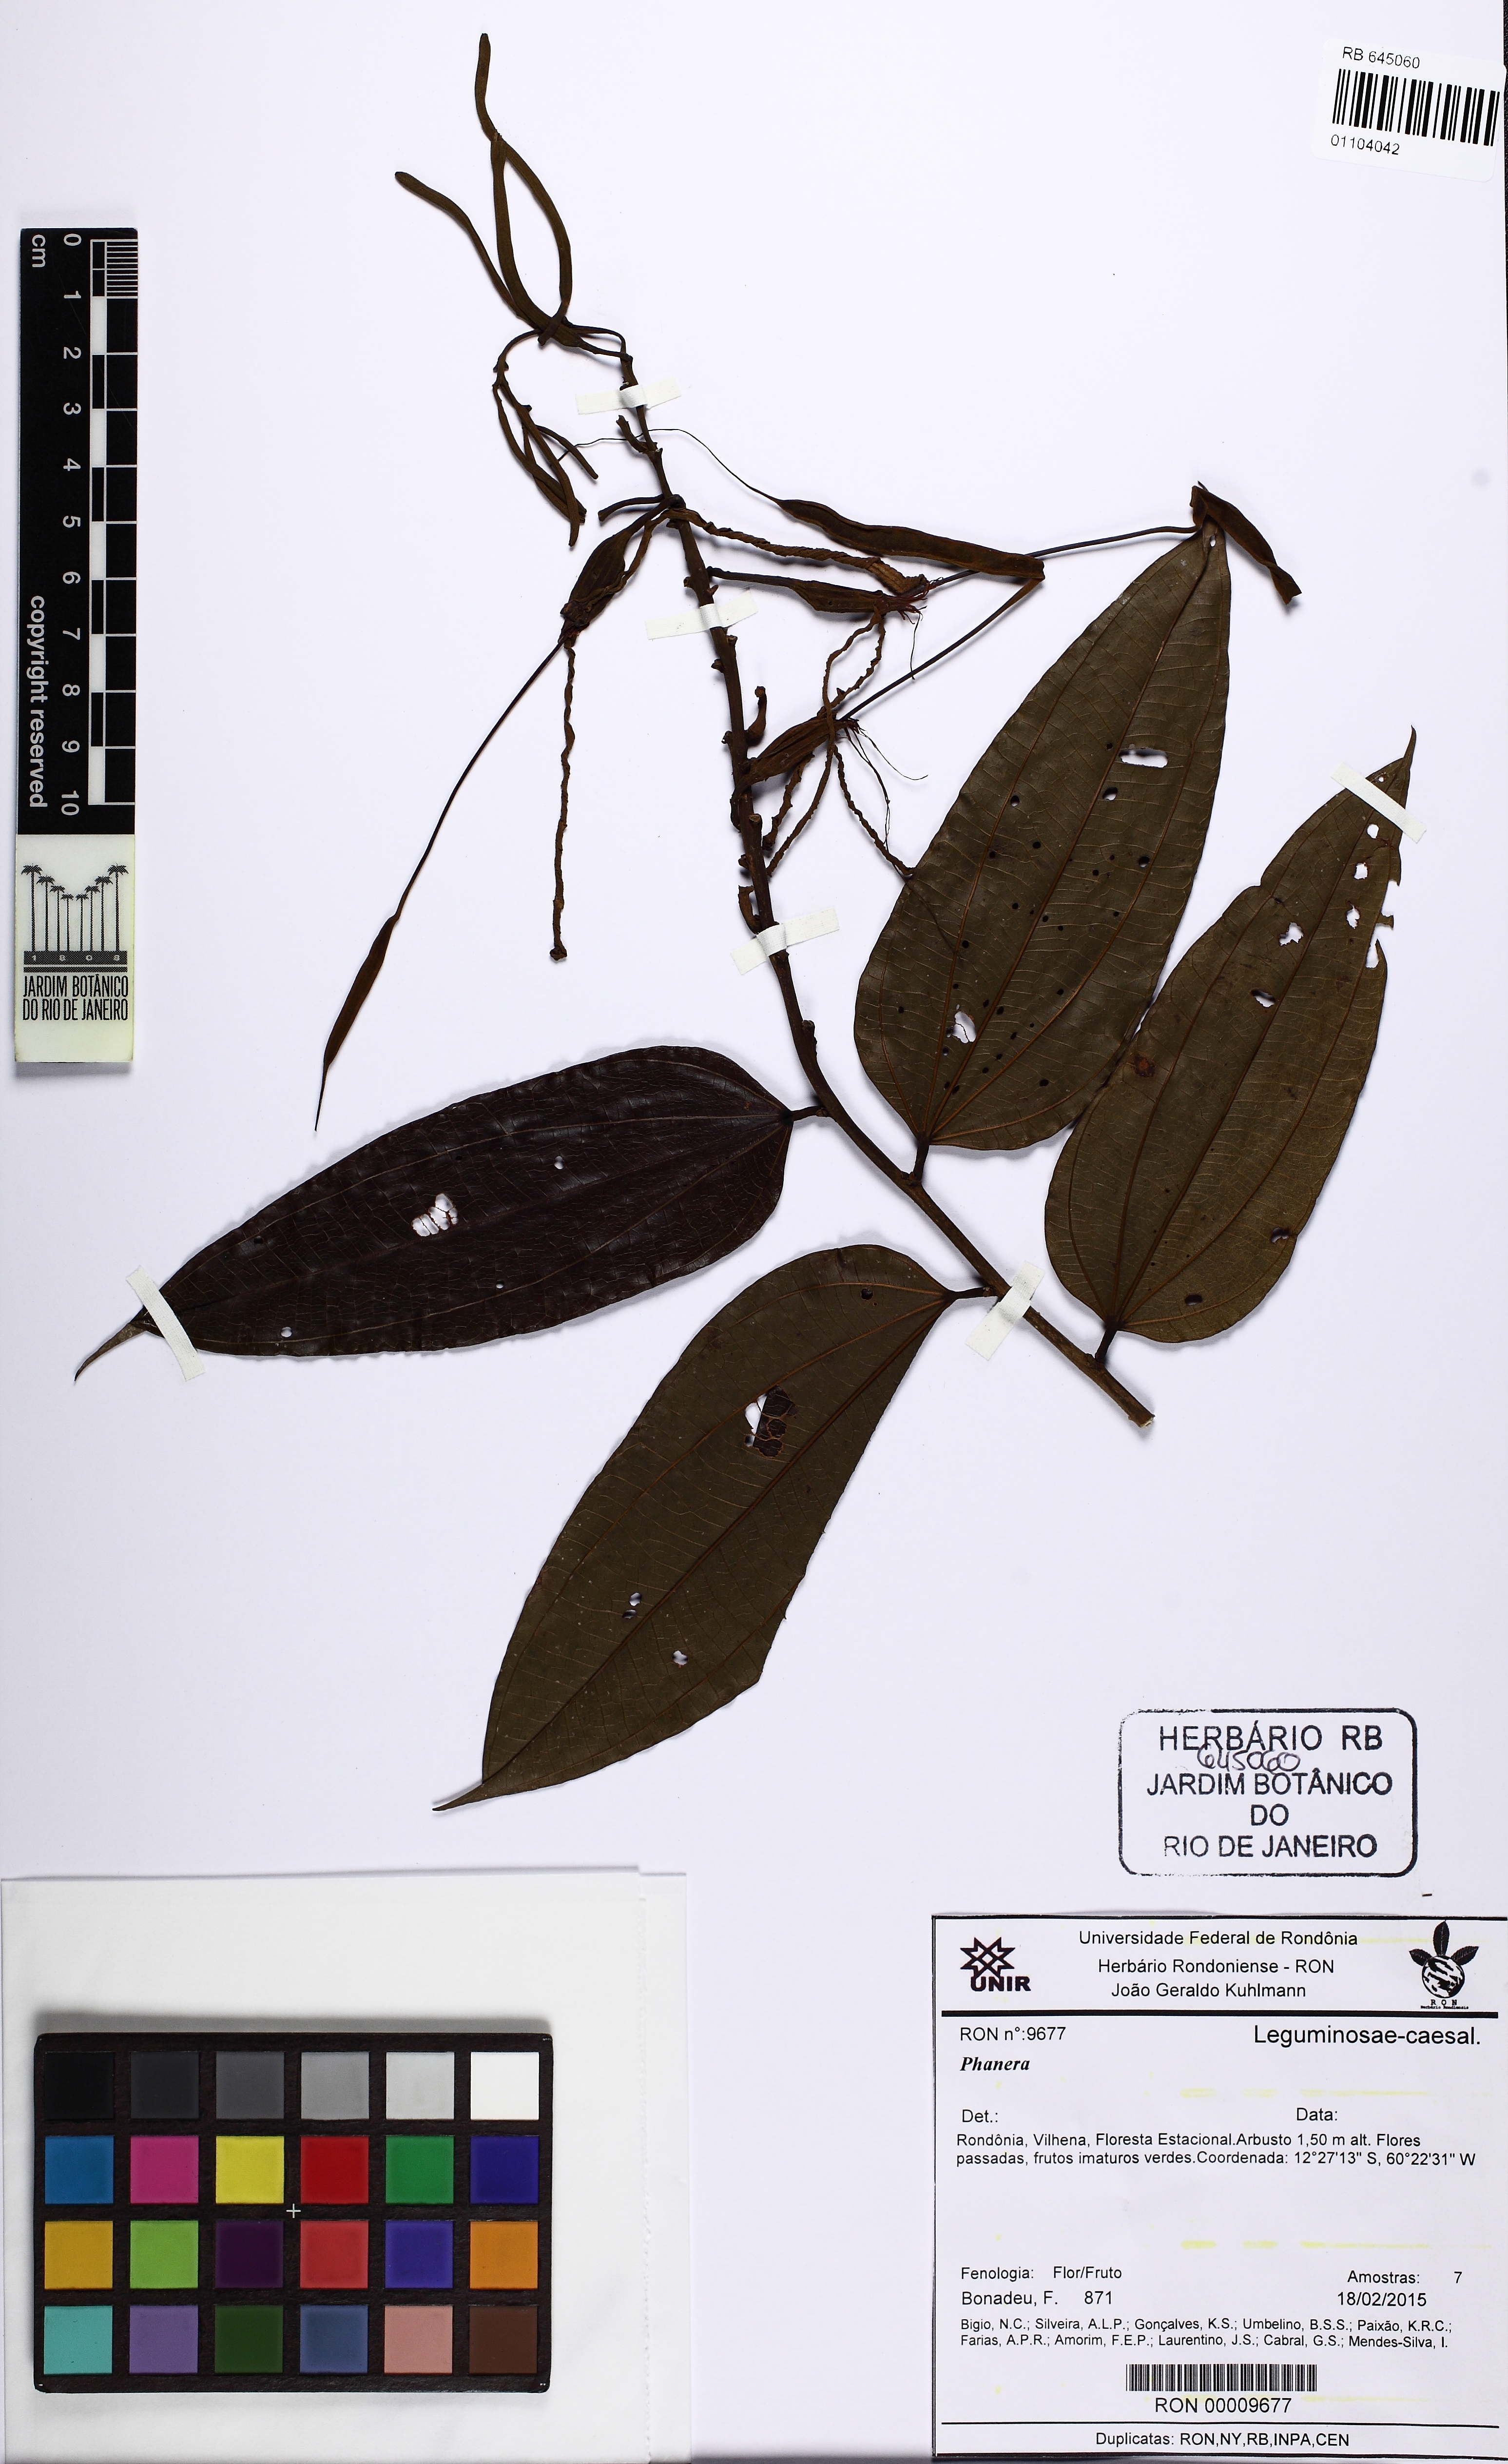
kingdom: Plantae
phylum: Tracheophyta
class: Magnoliopsida
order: Fabales
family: Fabaceae
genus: Bauhinia
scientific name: Bauhinia
